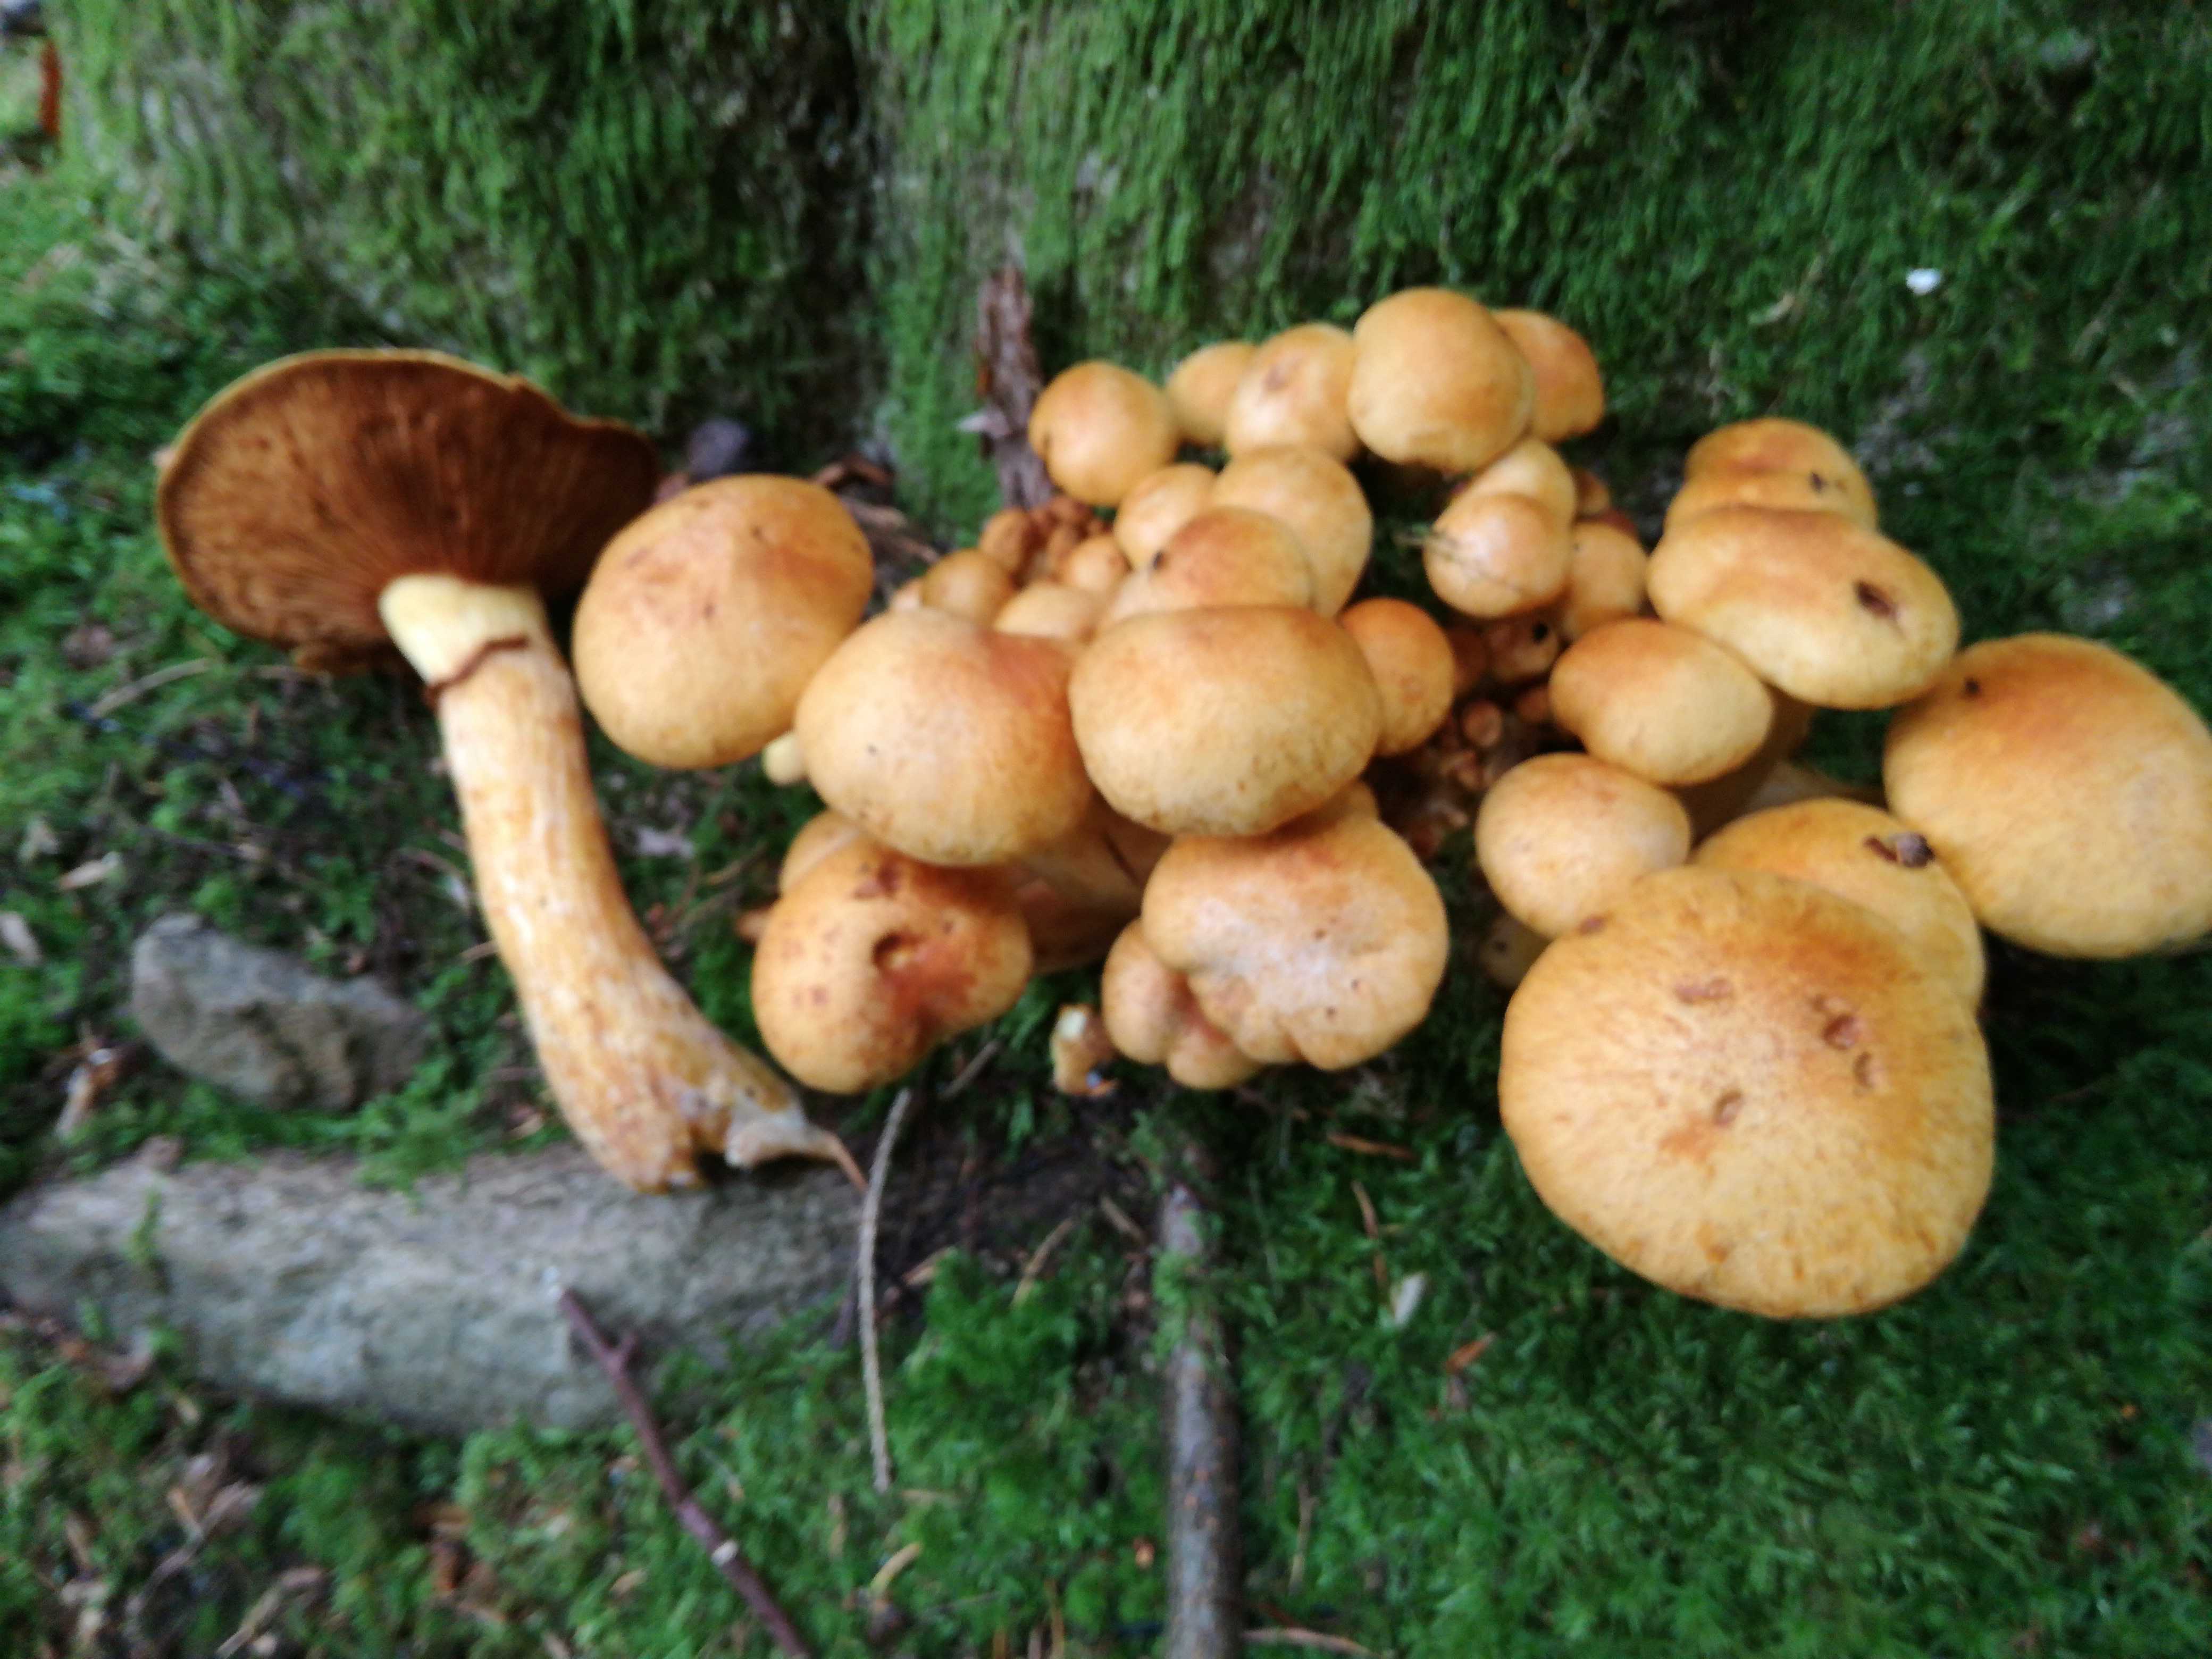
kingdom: Fungi
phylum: Basidiomycota
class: Agaricomycetes
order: Agaricales
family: Hymenogastraceae
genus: Gymnopilus
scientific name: Gymnopilus spectabilis
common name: fibret flammehat
